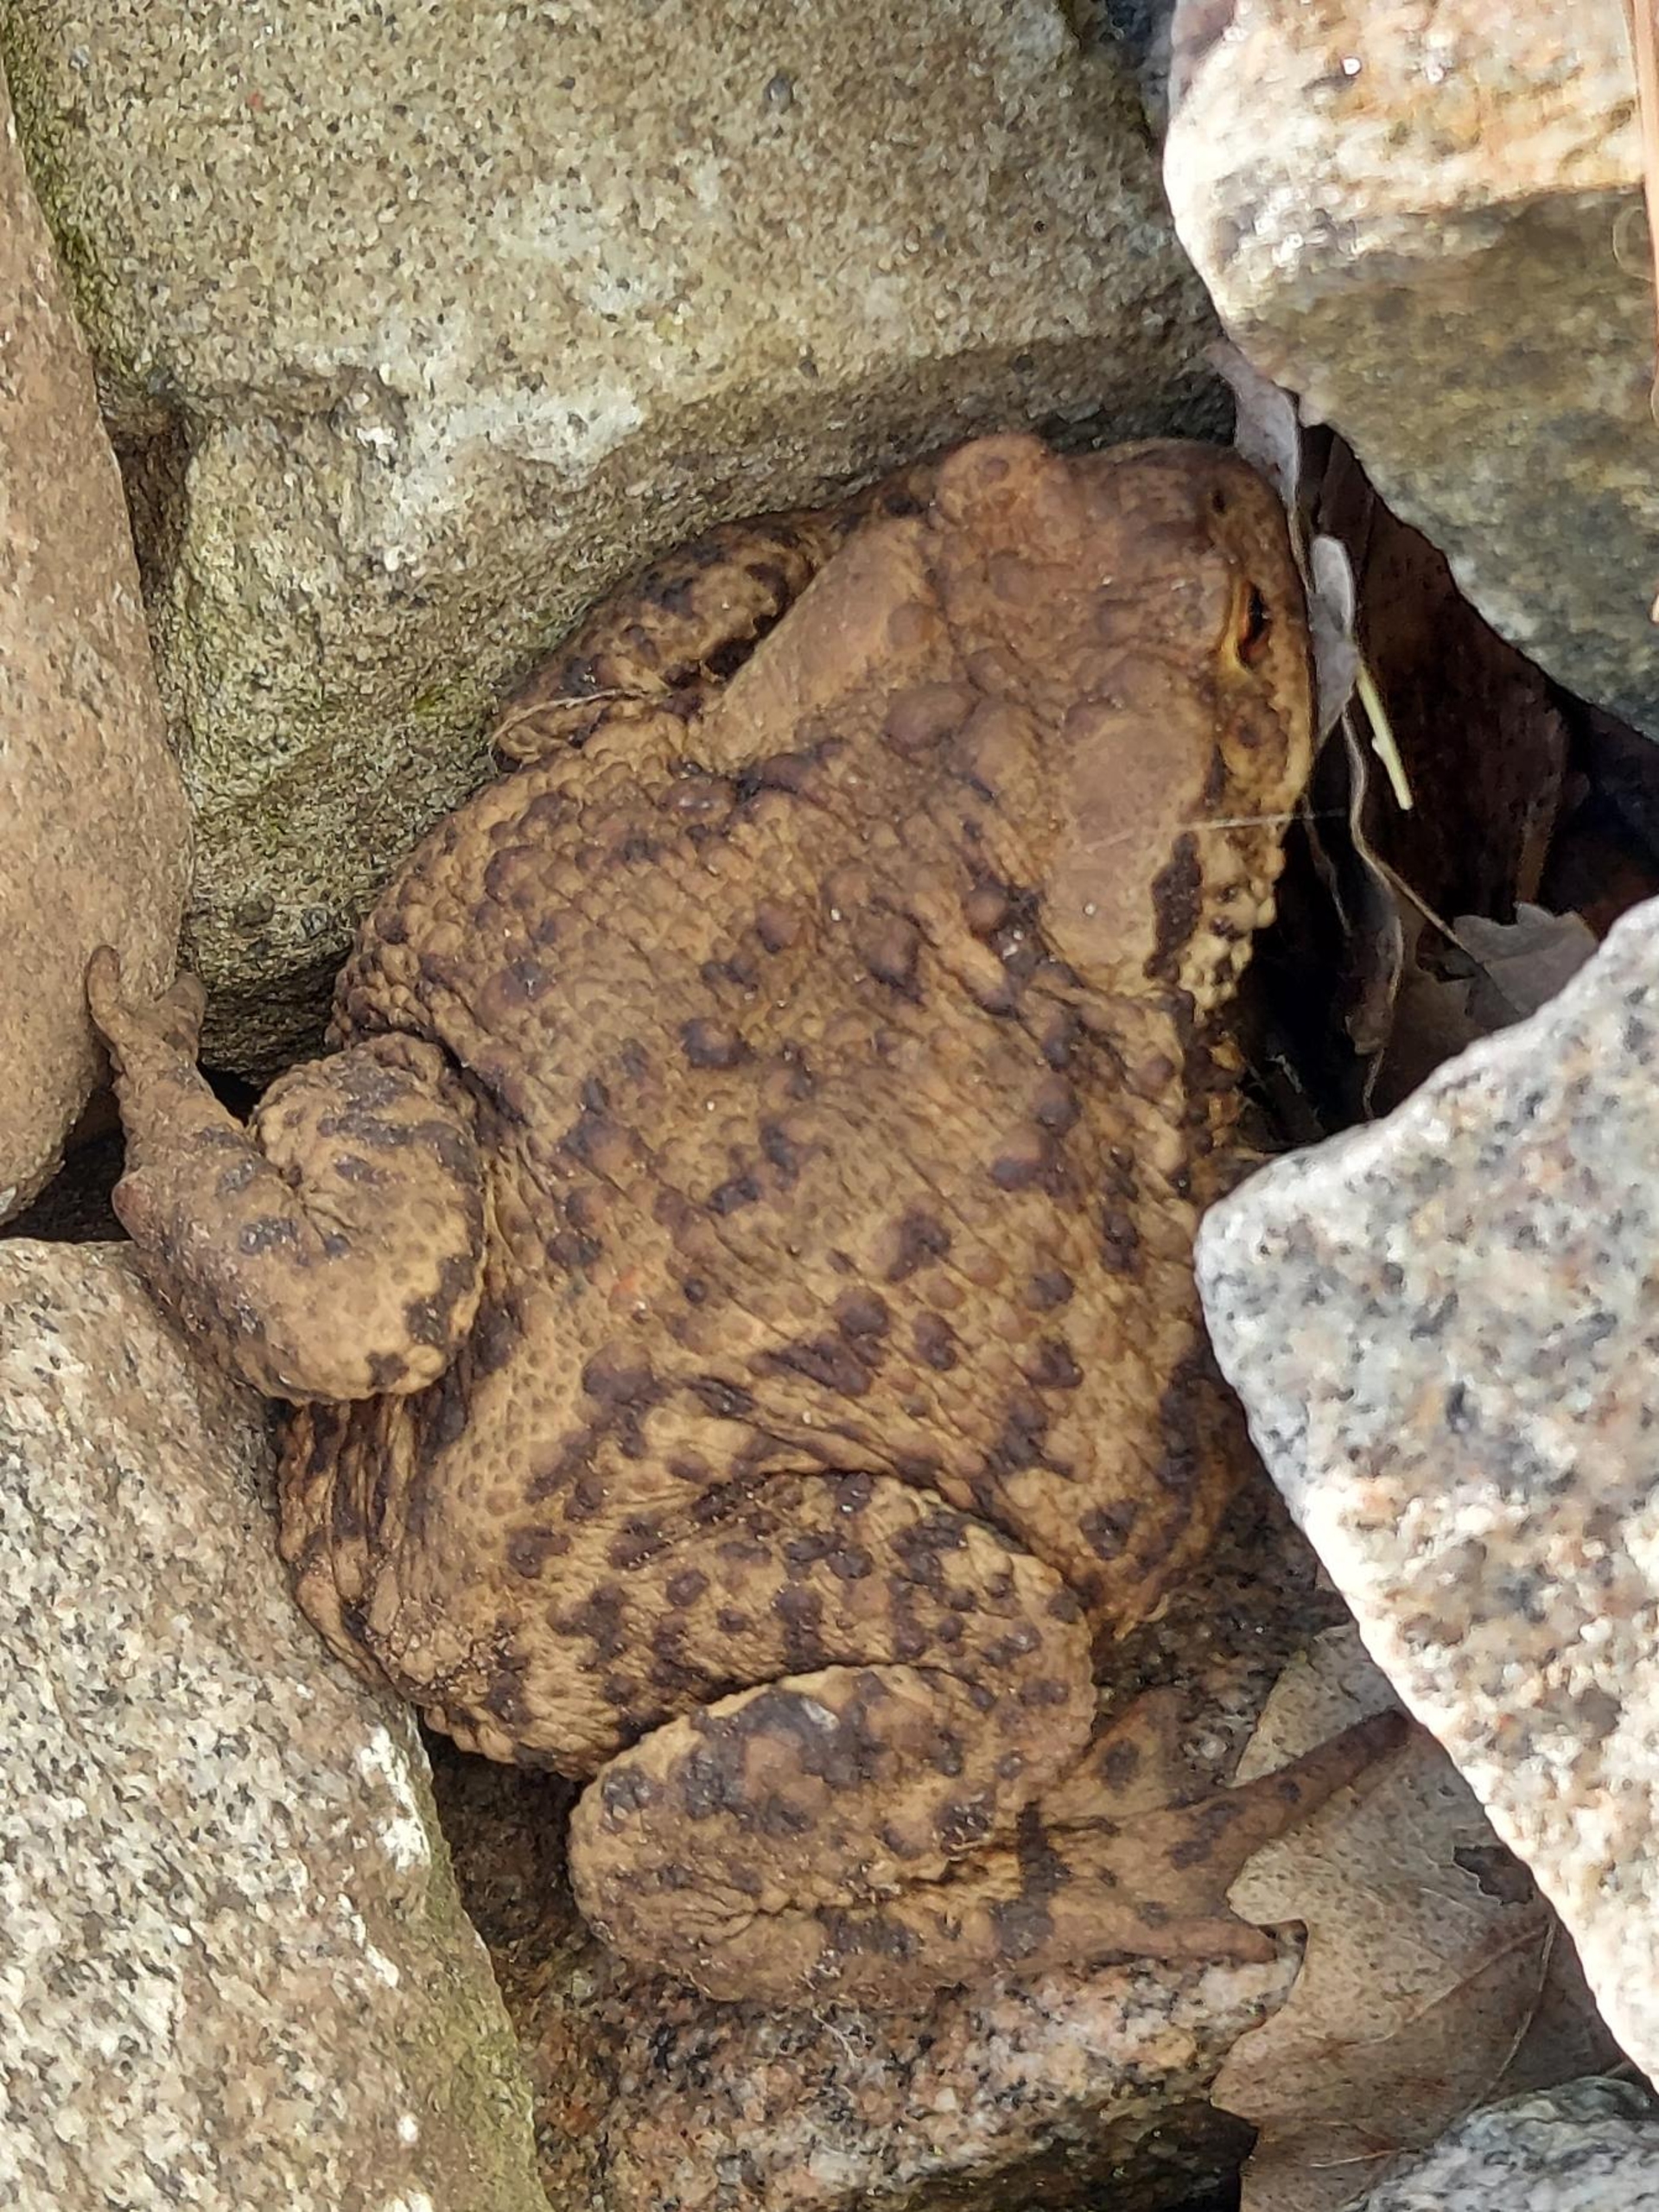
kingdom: Animalia
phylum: Chordata
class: Amphibia
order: Anura
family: Bufonidae
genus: Bufo
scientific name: Bufo bufo
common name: Skrubtudse
